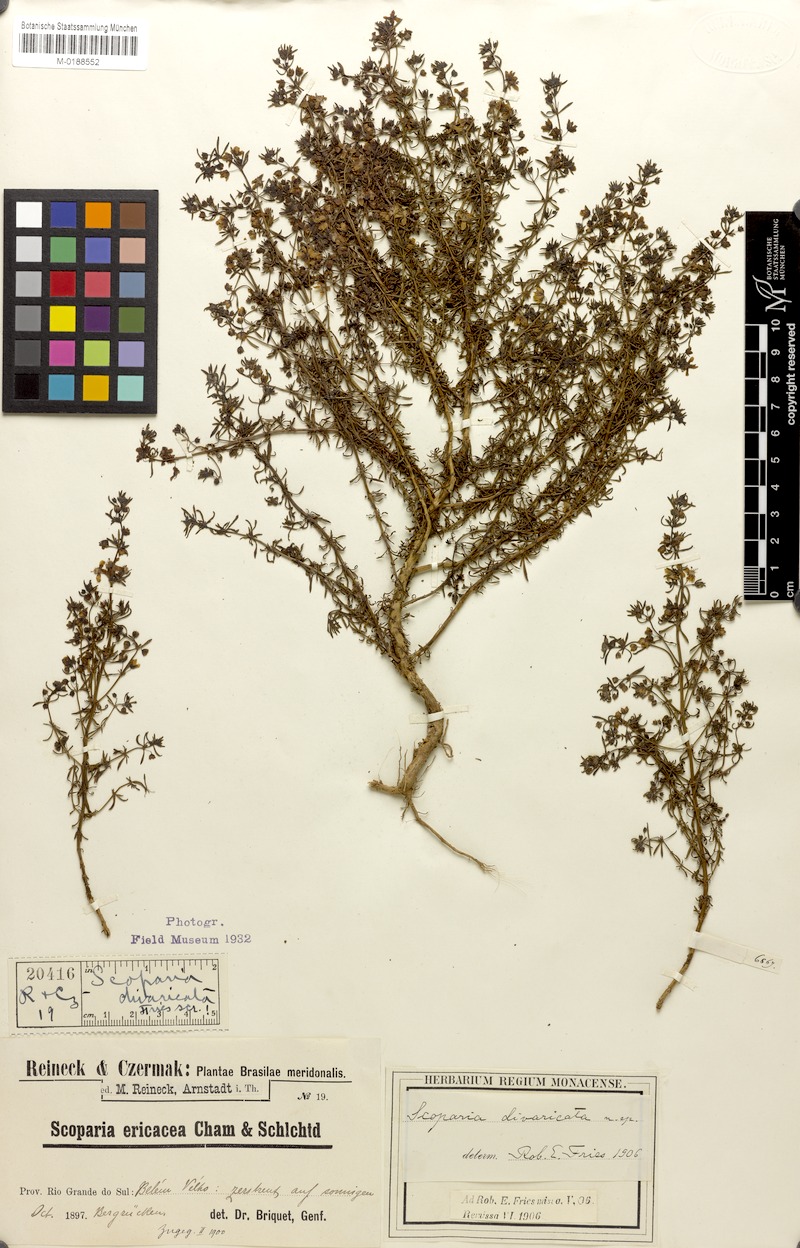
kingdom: Plantae
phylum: Tracheophyta
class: Magnoliopsida
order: Lamiales
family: Plantaginaceae
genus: Scoparia
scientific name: Scoparia ericacea
